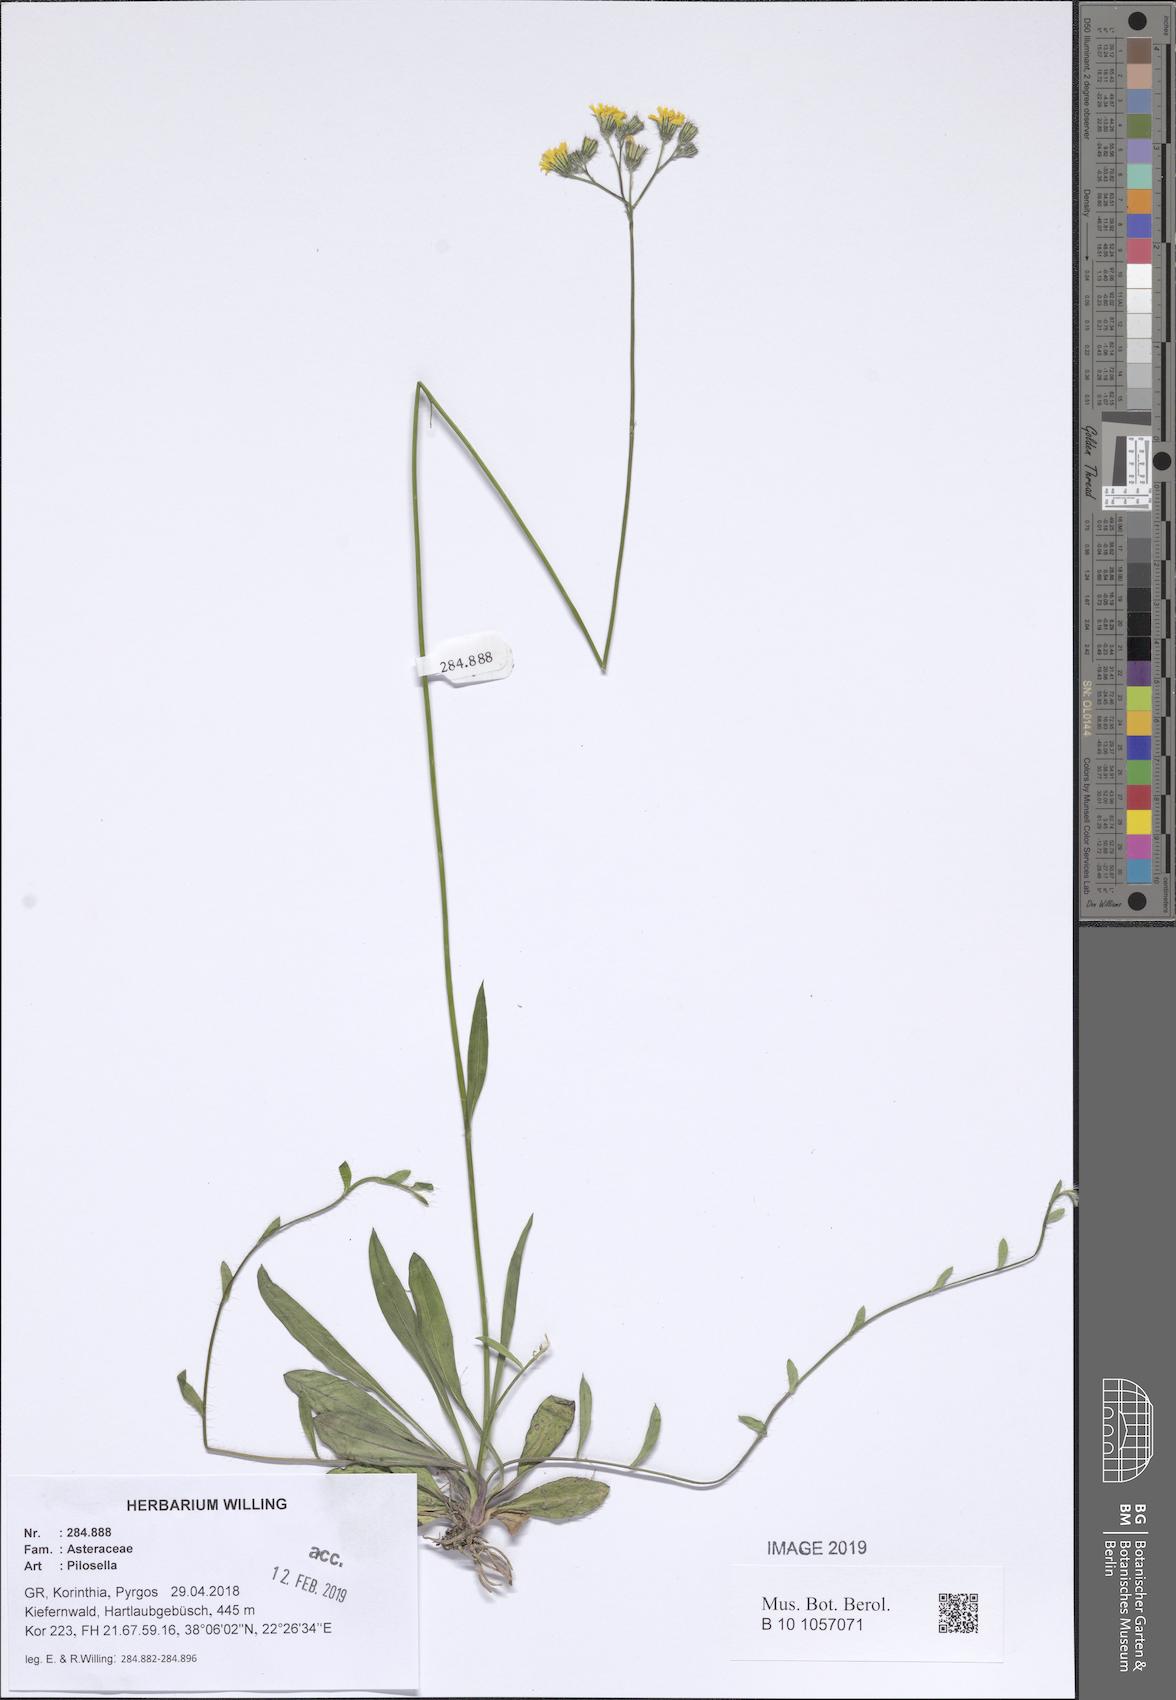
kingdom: Plantae
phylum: Tracheophyta
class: Magnoliopsida
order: Asterales
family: Asteraceae
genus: Pilosella
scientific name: Pilosella
